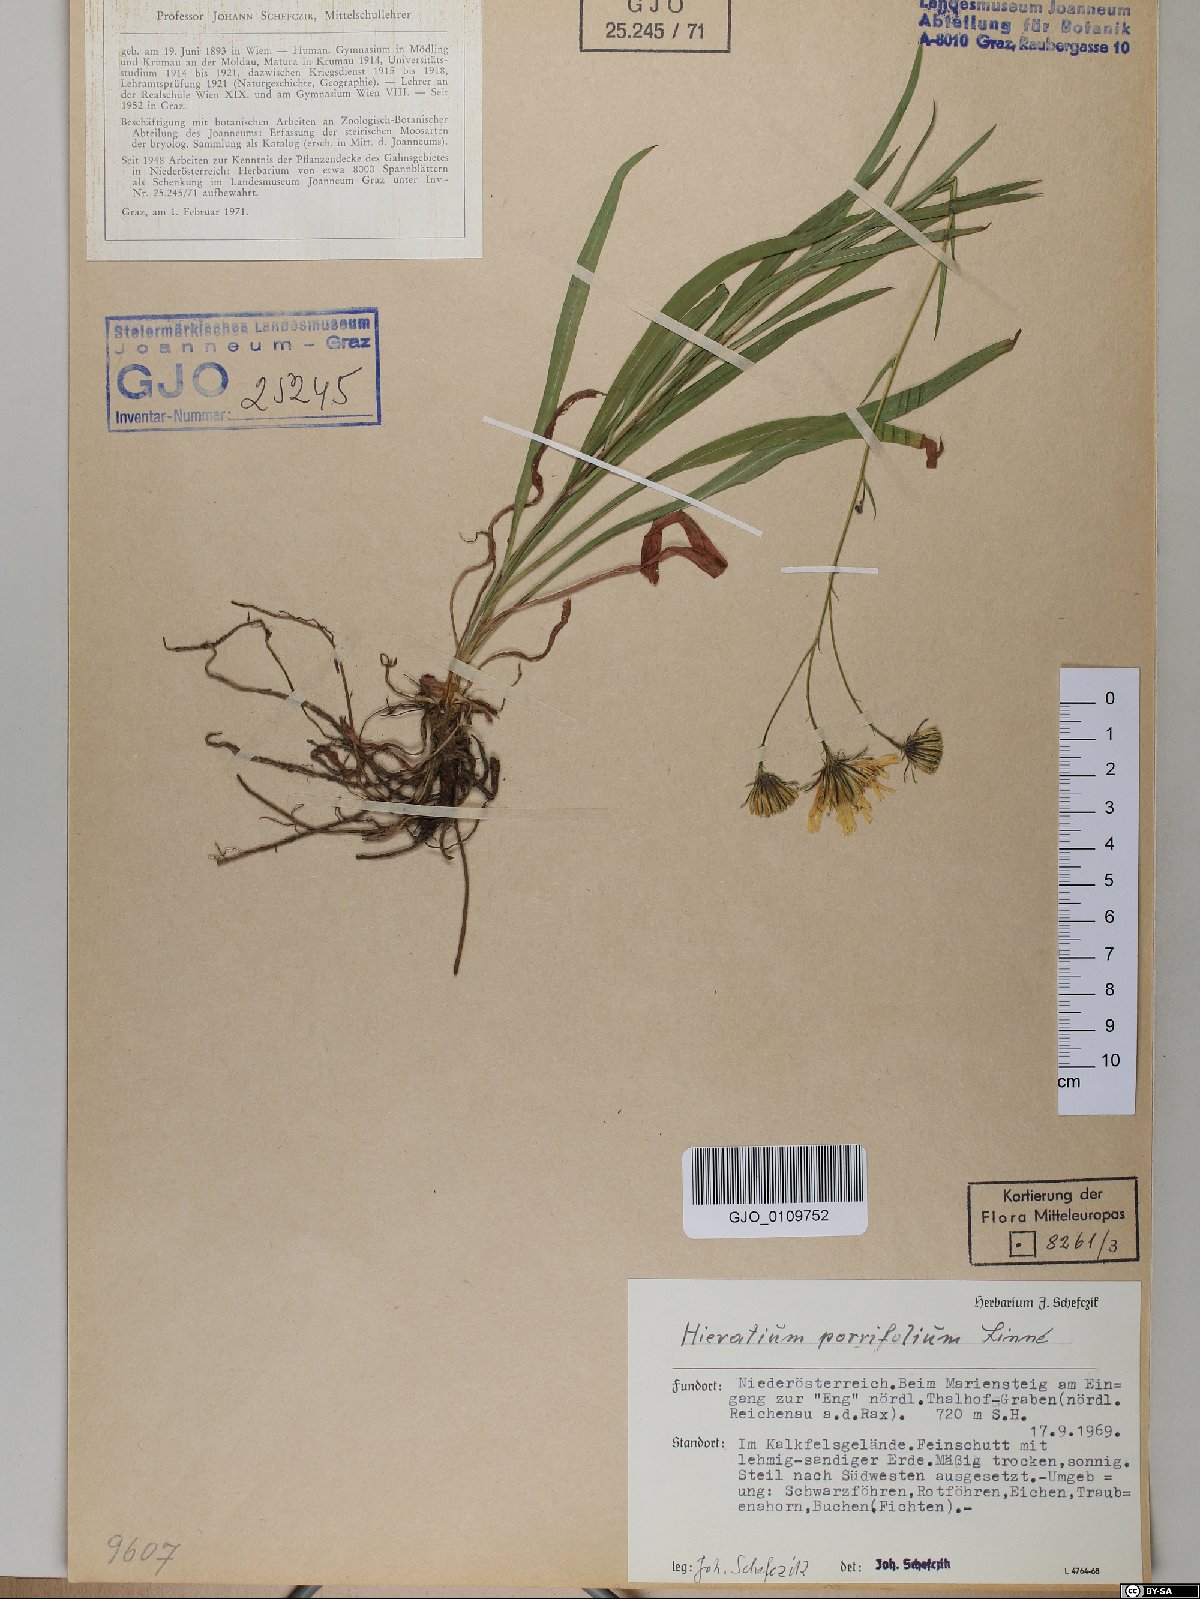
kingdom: Plantae
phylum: Tracheophyta
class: Magnoliopsida
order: Asterales
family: Asteraceae
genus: Hieracium
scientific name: Hieracium porrifolium
